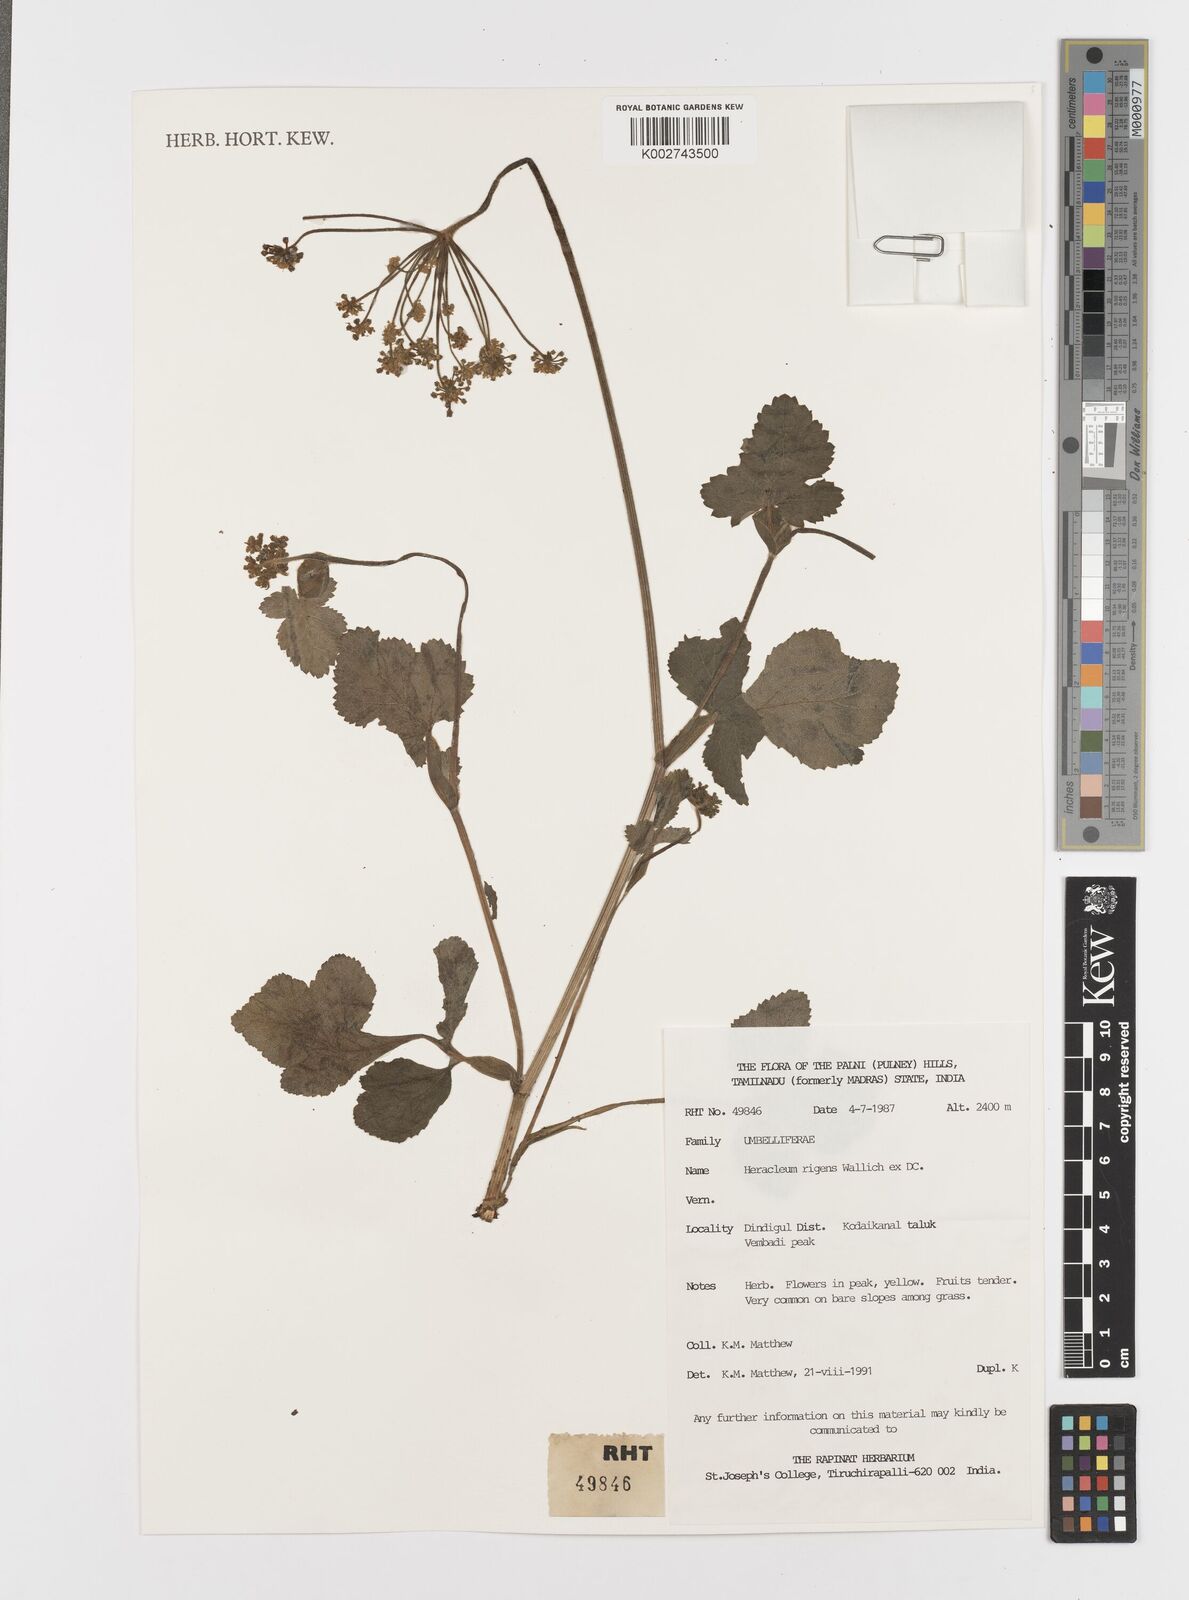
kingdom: Plantae
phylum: Tracheophyta
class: Magnoliopsida
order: Apiales
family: Apiaceae
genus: Tetrataenium
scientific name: Tetrataenium rigens
